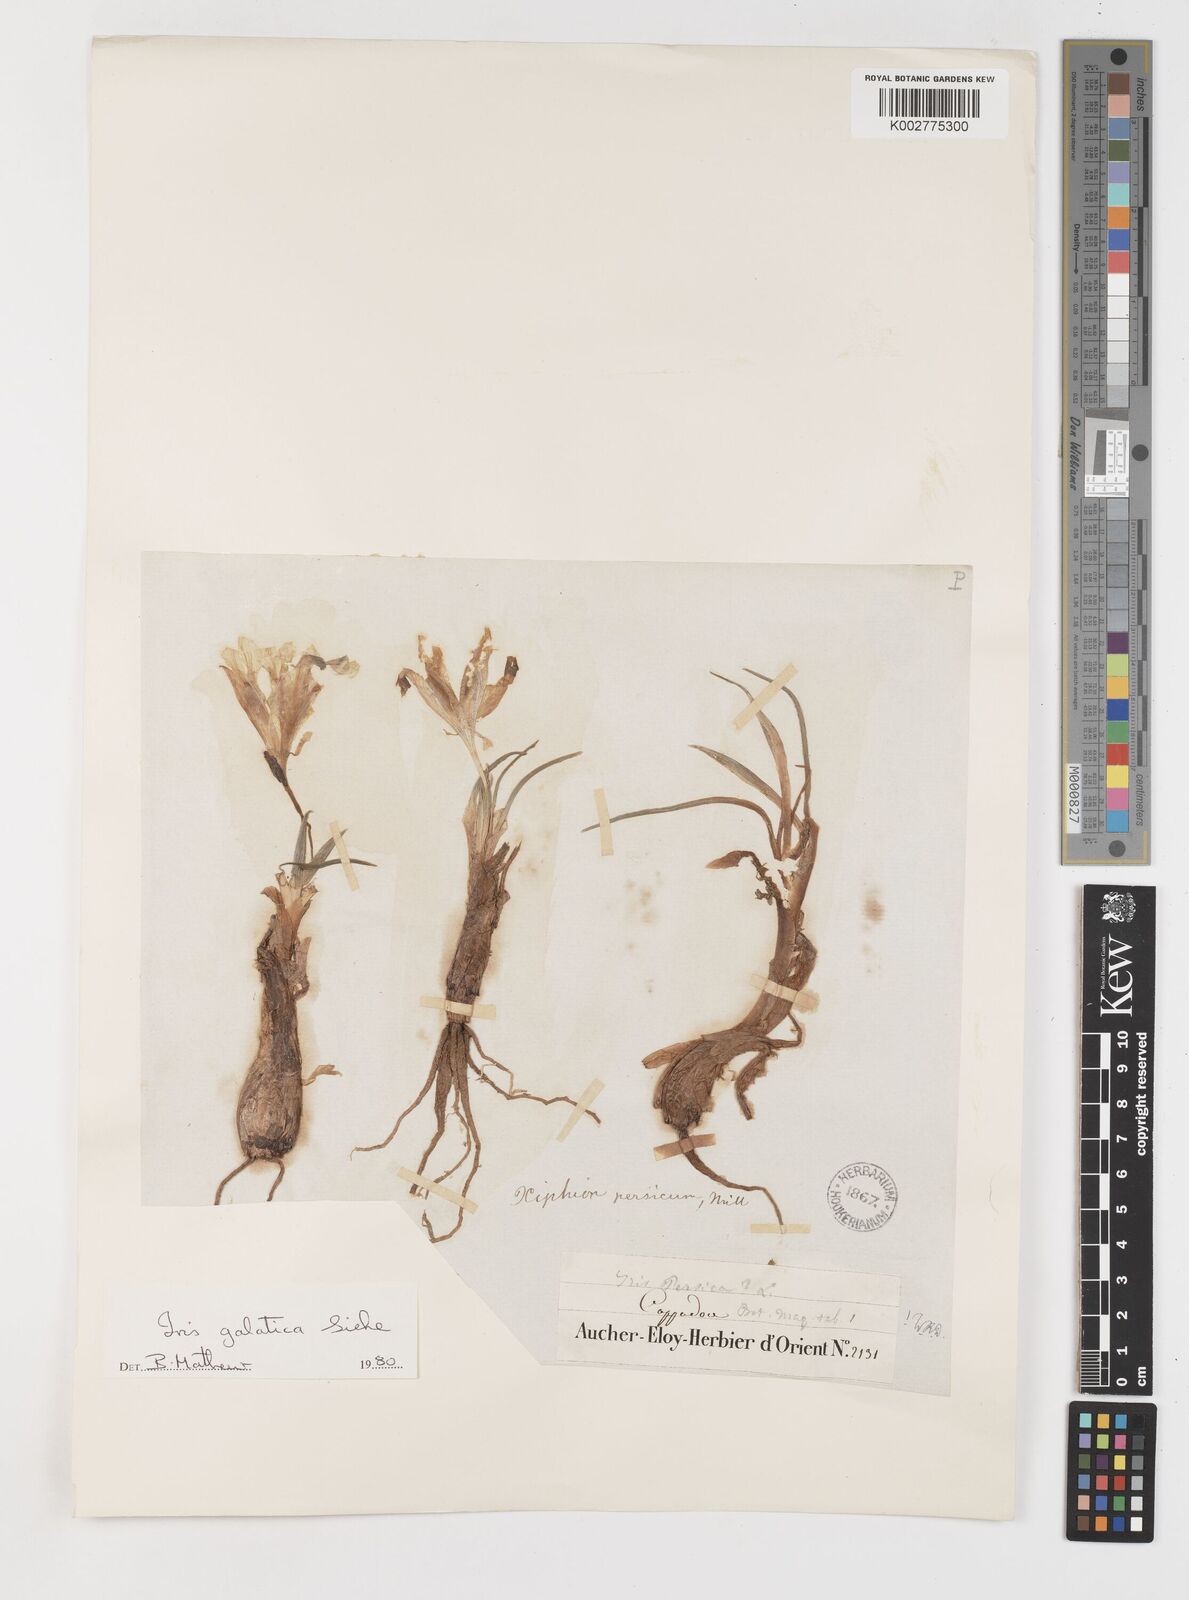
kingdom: Plantae
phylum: Tracheophyta
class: Liliopsida
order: Asparagales
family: Iridaceae
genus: Iris
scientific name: Iris galatica
